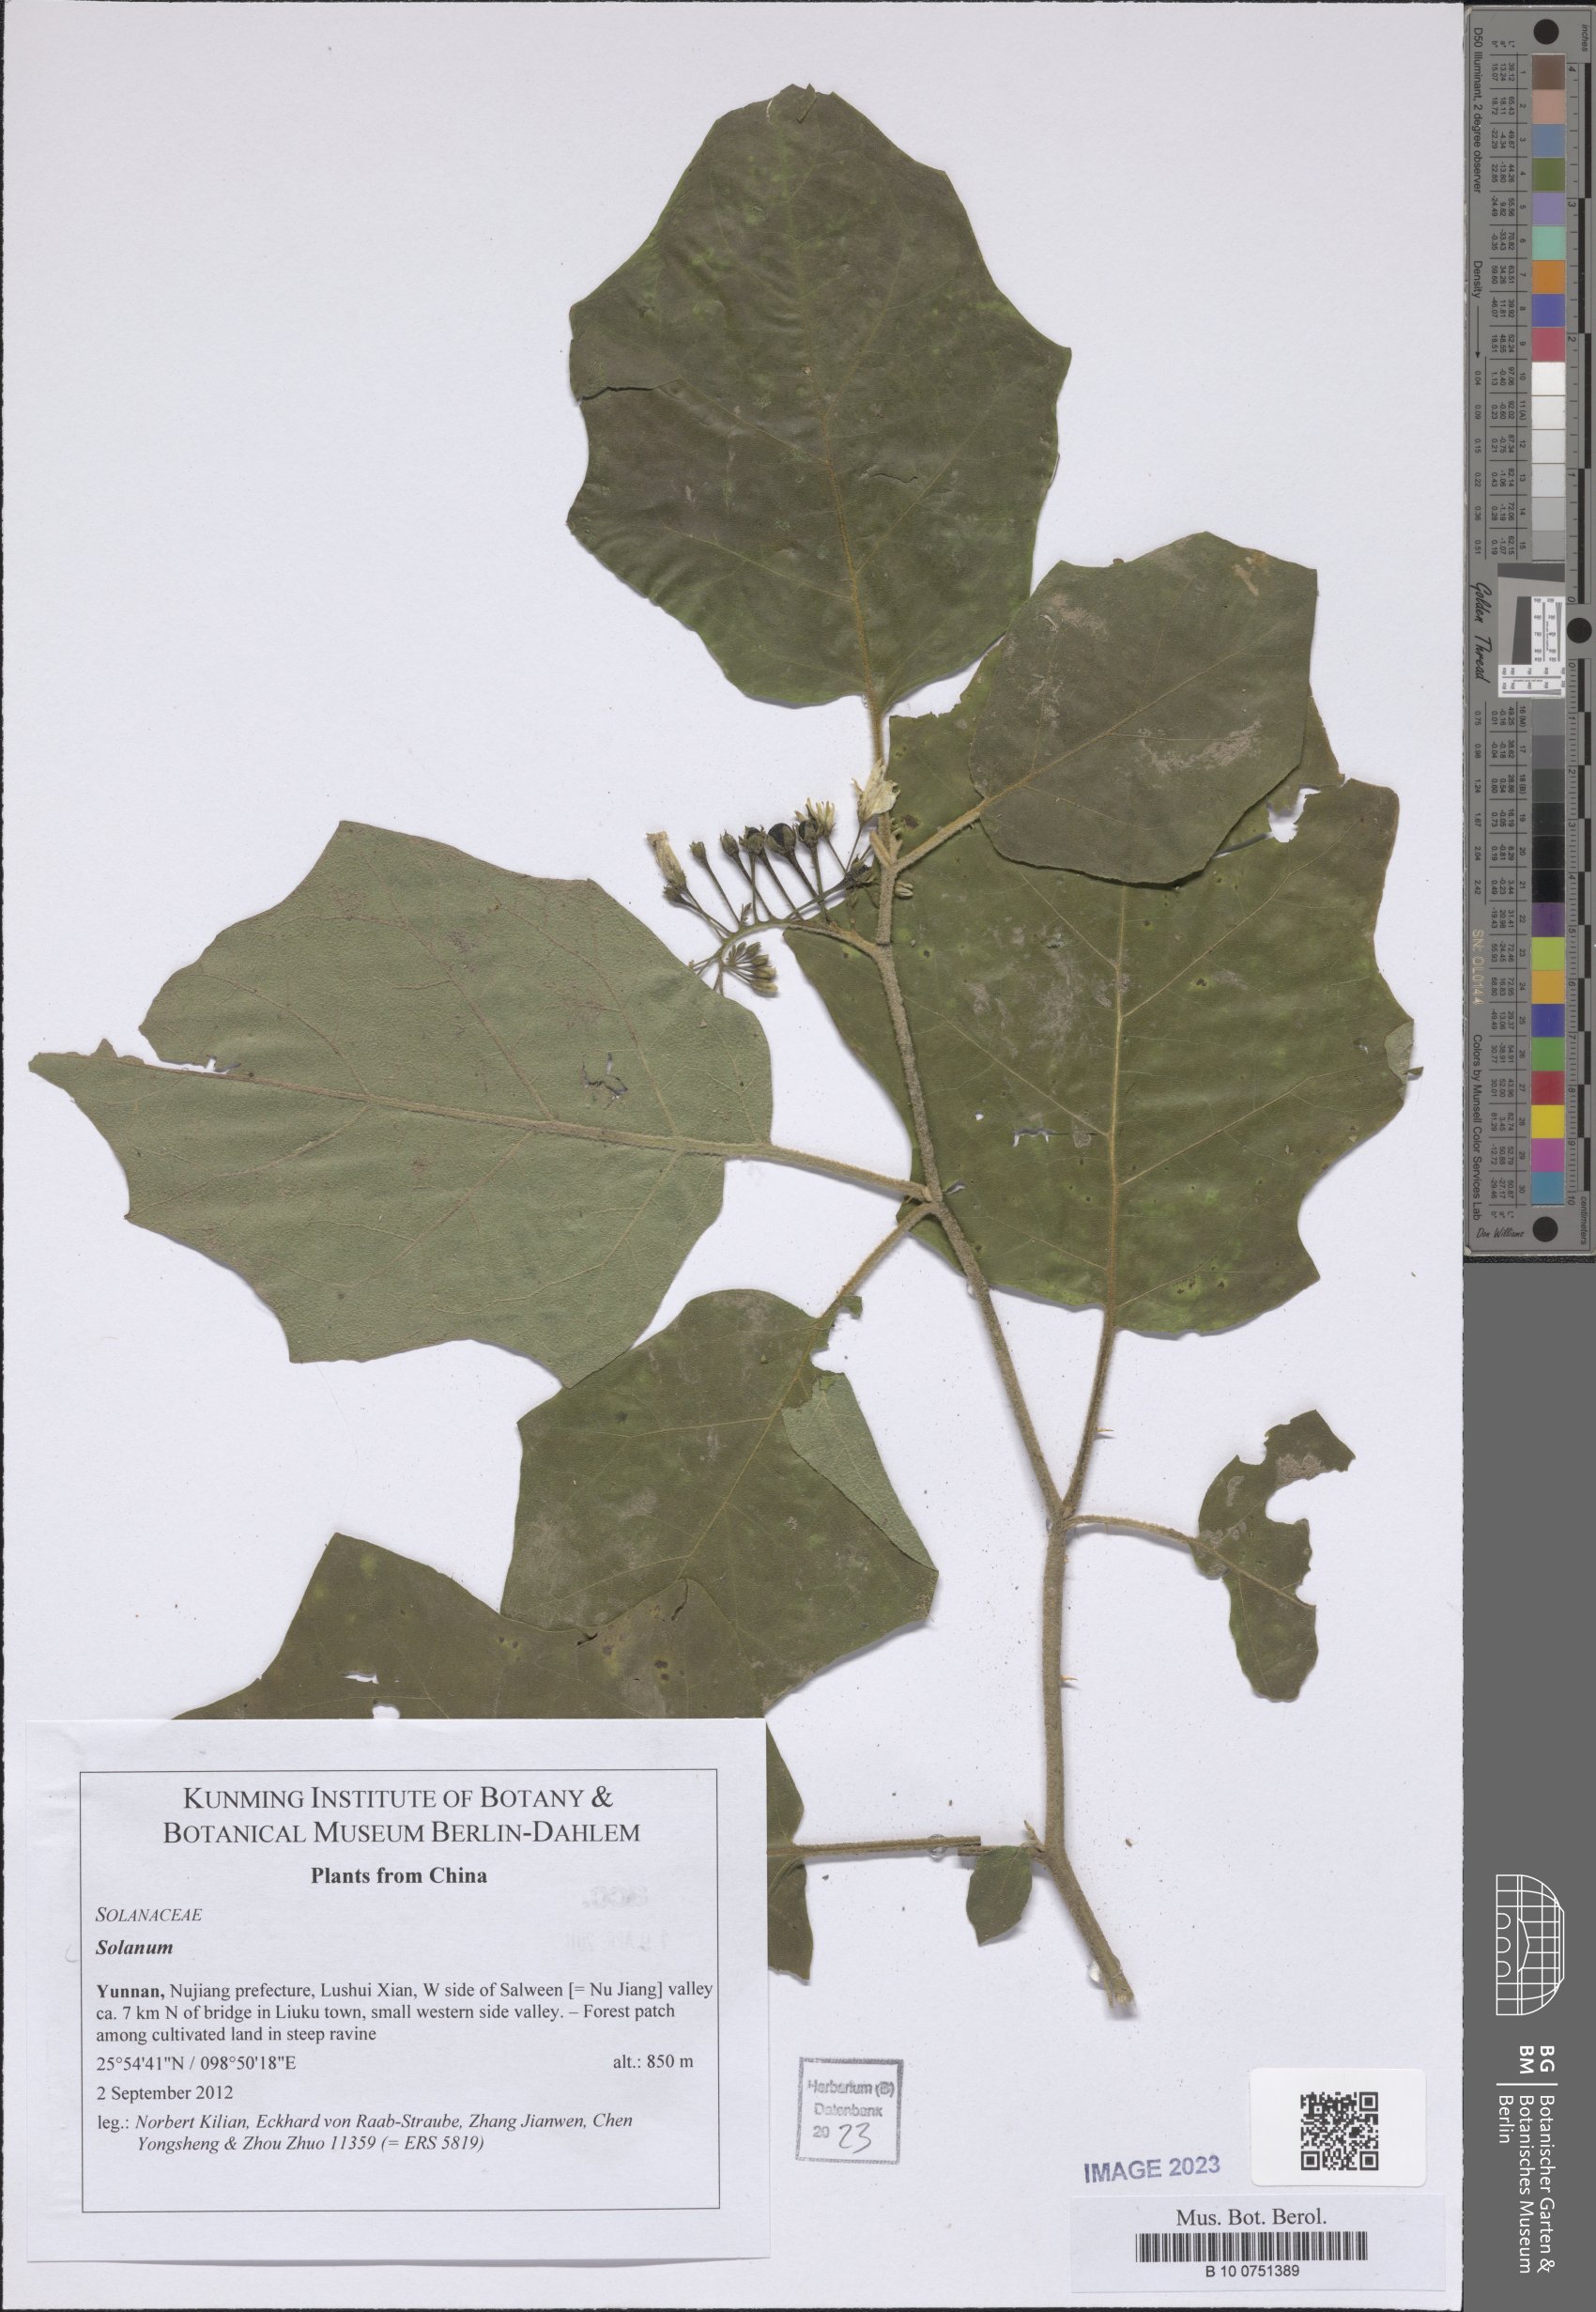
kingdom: Plantae
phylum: Tracheophyta
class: Magnoliopsida
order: Solanales
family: Solanaceae
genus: Solanum
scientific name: Solanum
